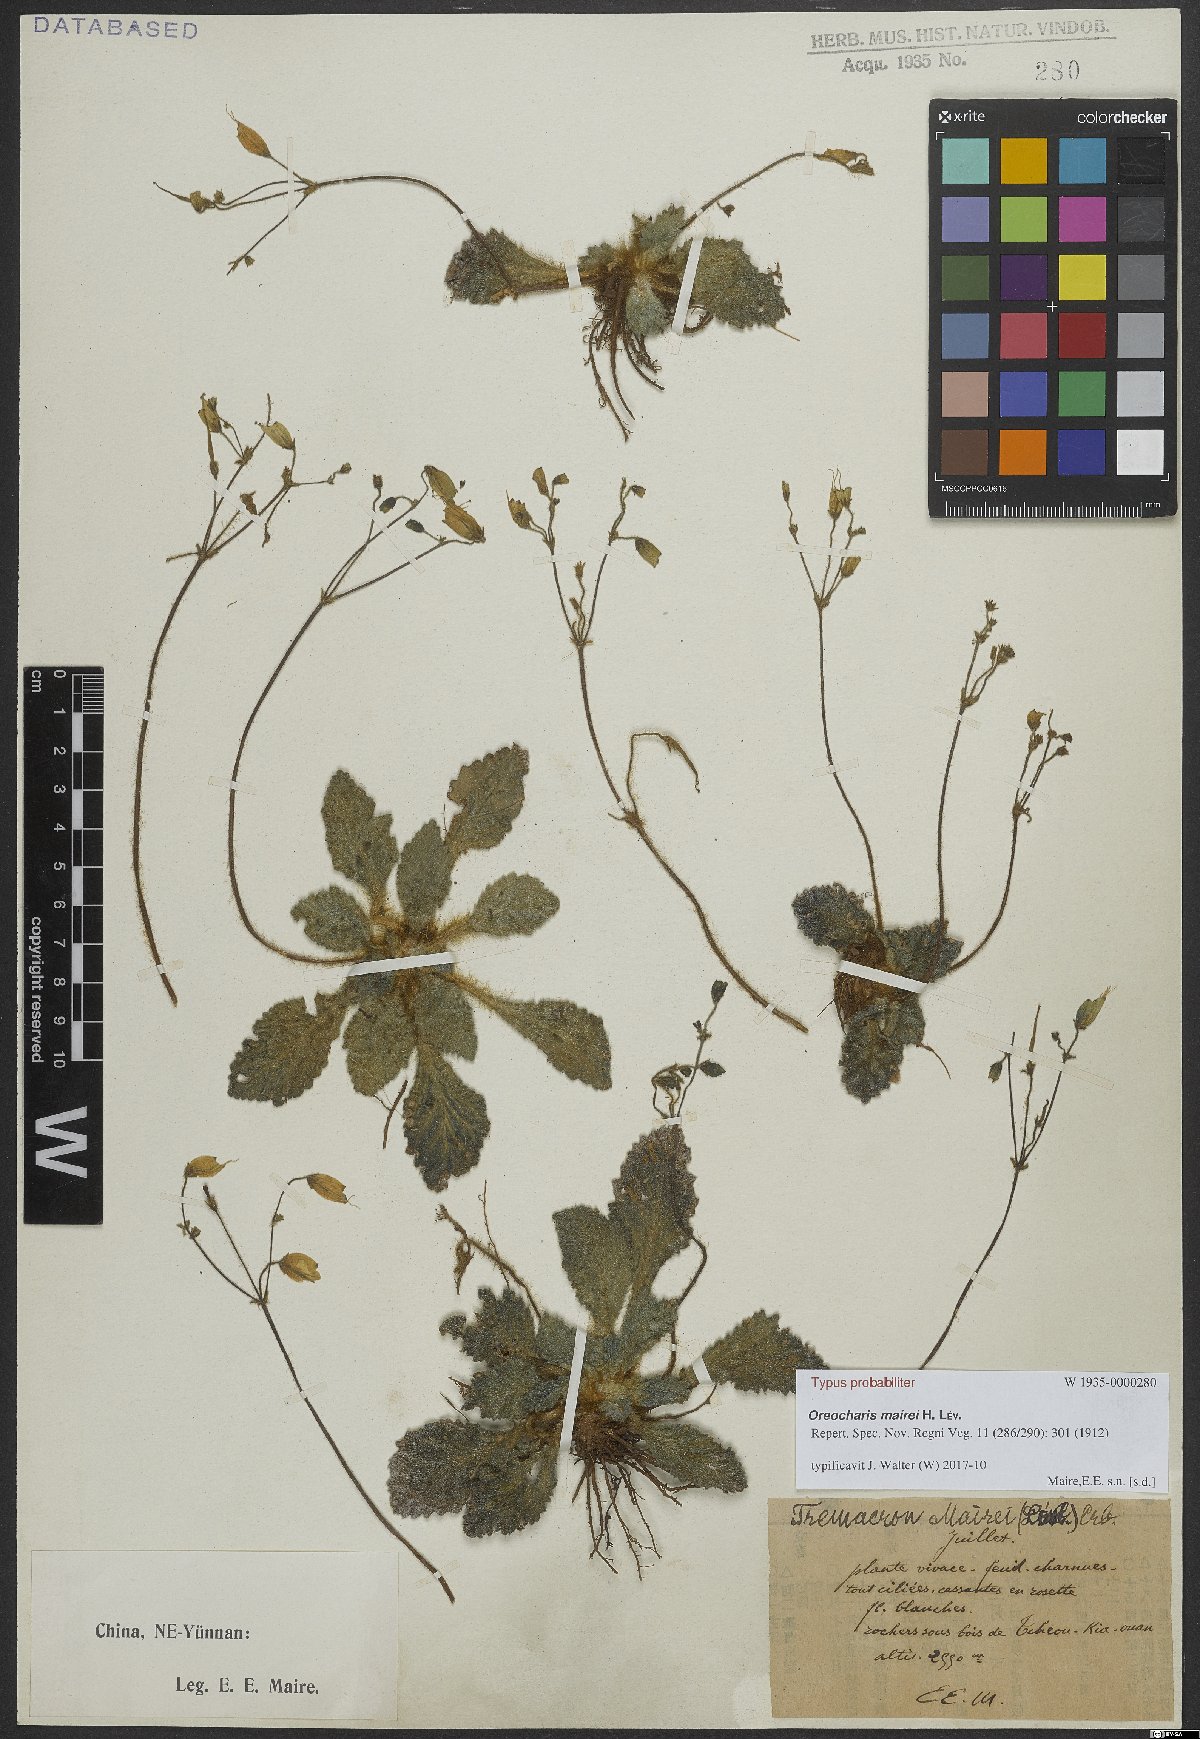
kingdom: Plantae
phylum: Tracheophyta
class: Magnoliopsida
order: Lamiales
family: Gesneriaceae
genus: Oreocharis
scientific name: Oreocharis mairei
